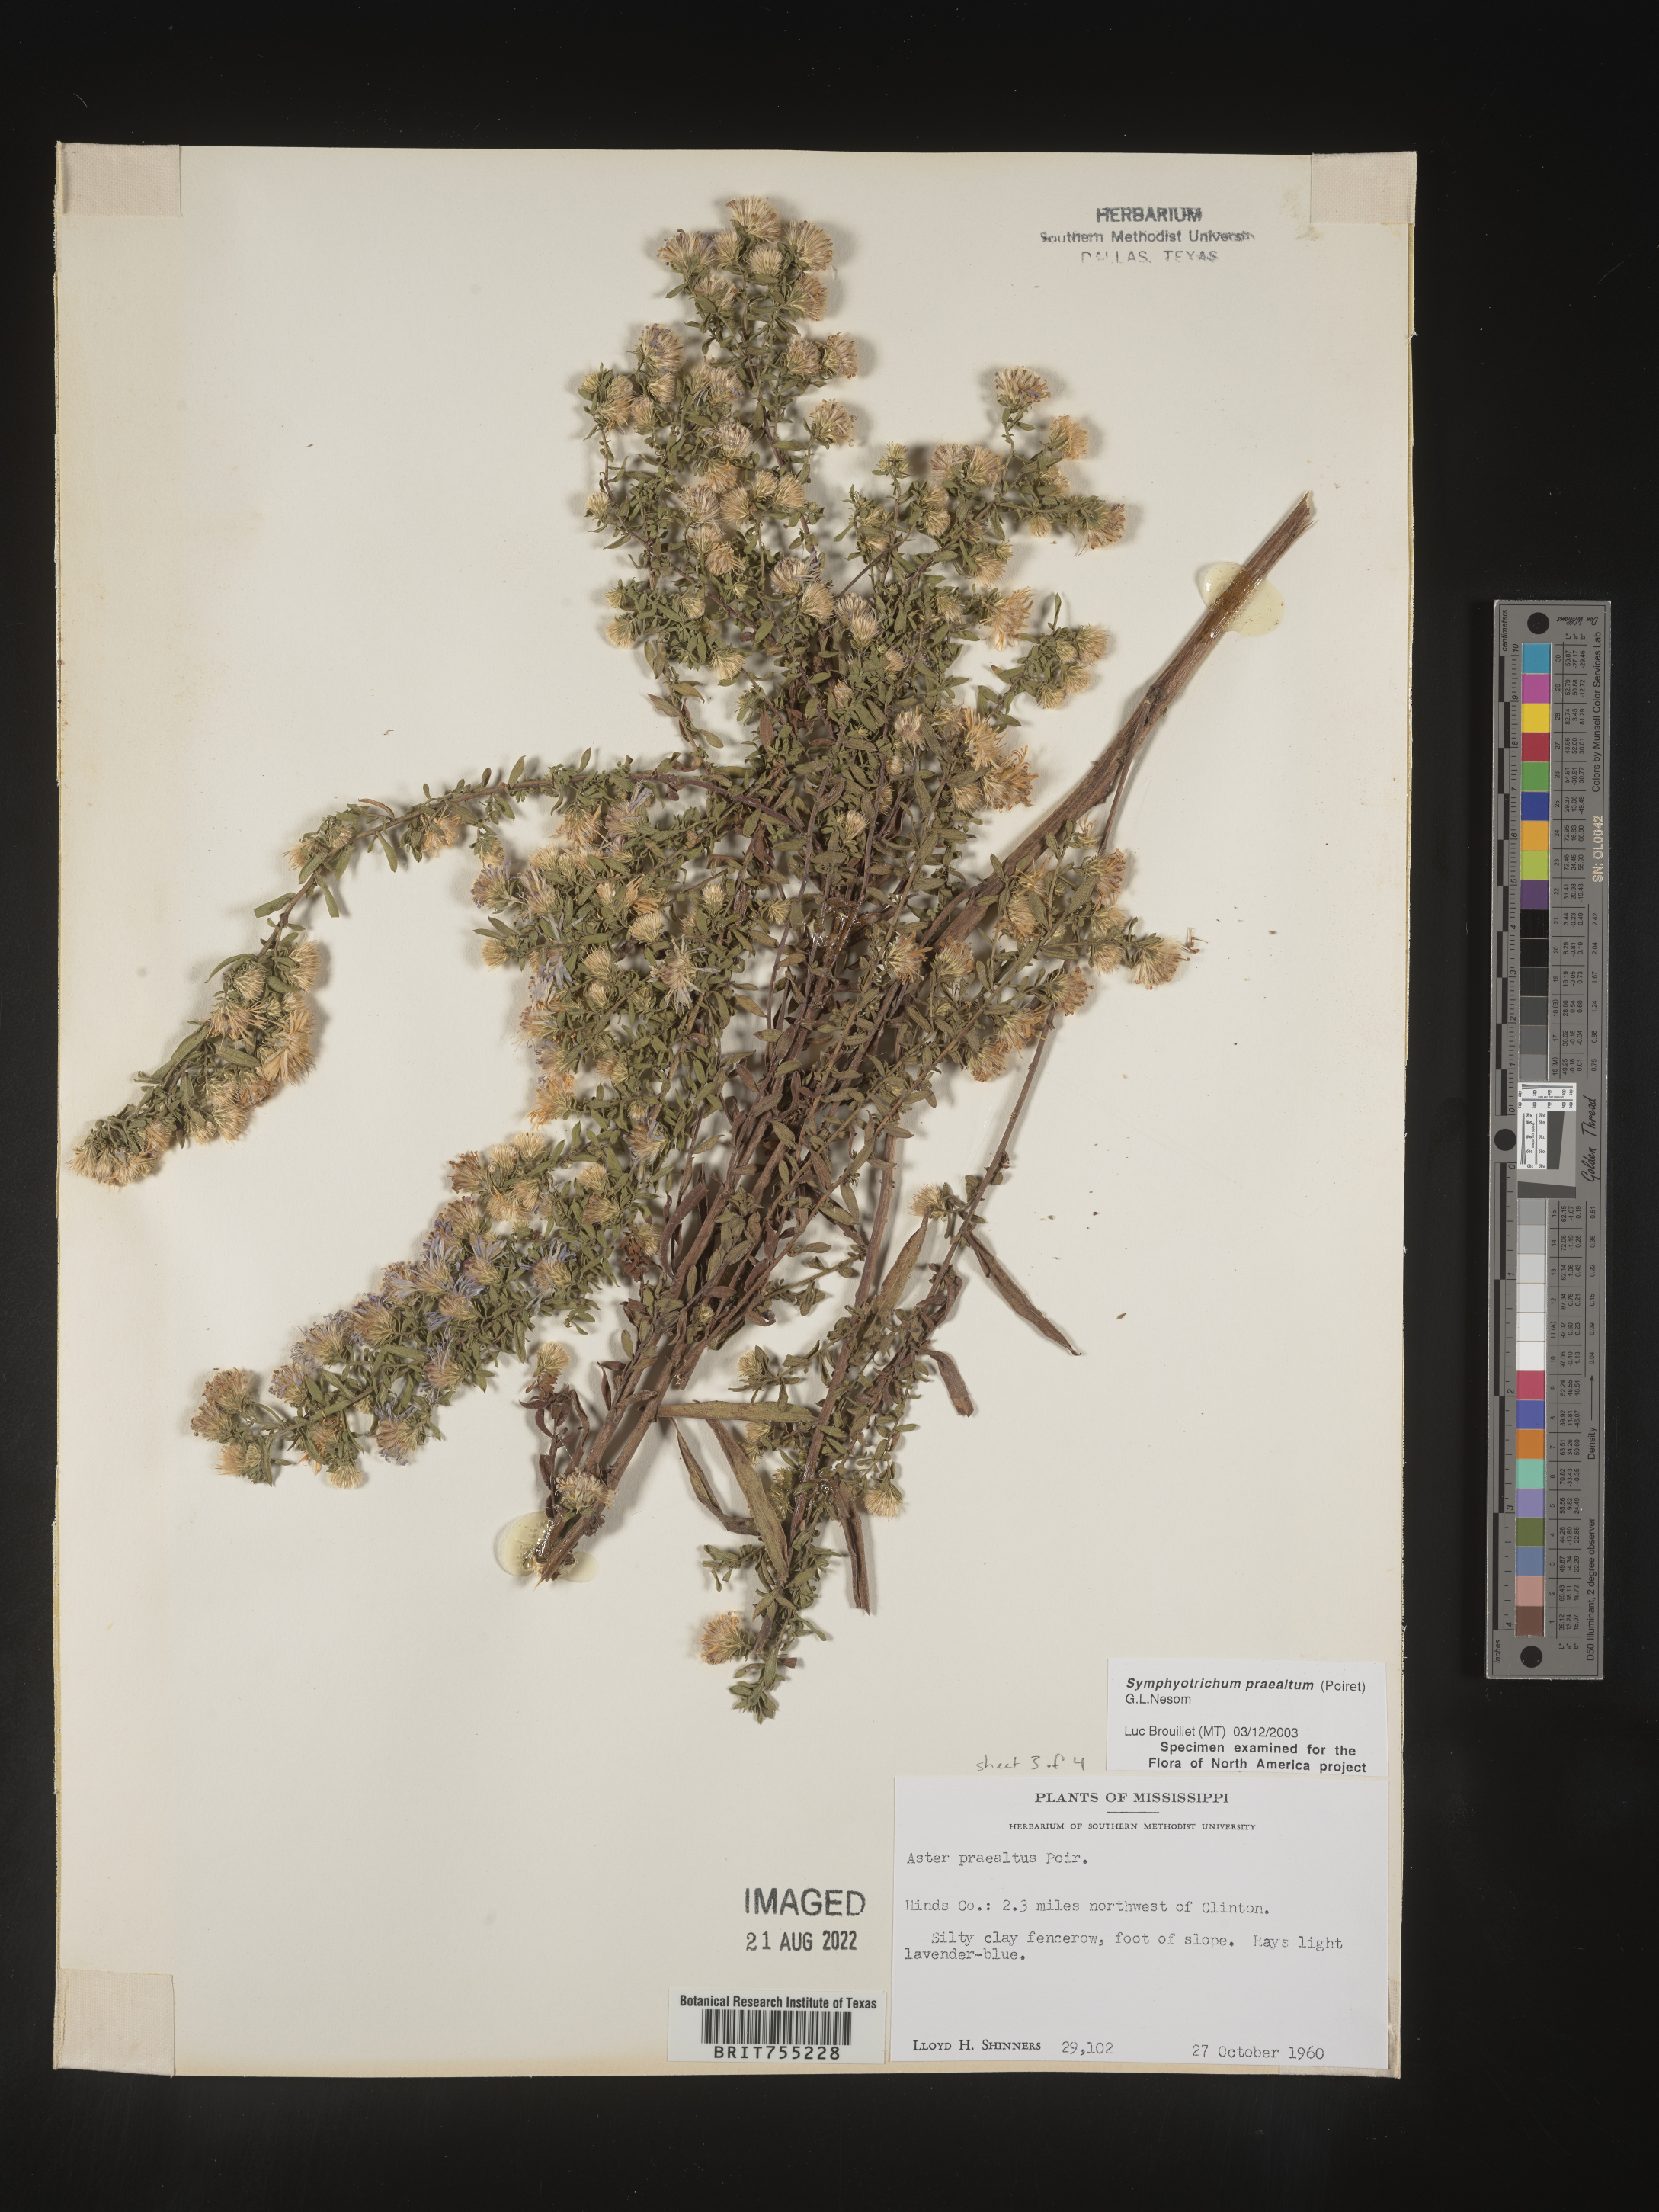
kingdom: Plantae
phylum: Tracheophyta
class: Magnoliopsida
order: Asterales
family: Asteraceae
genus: Symphyotrichum
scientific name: Symphyotrichum praealtum
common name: Willow aster
